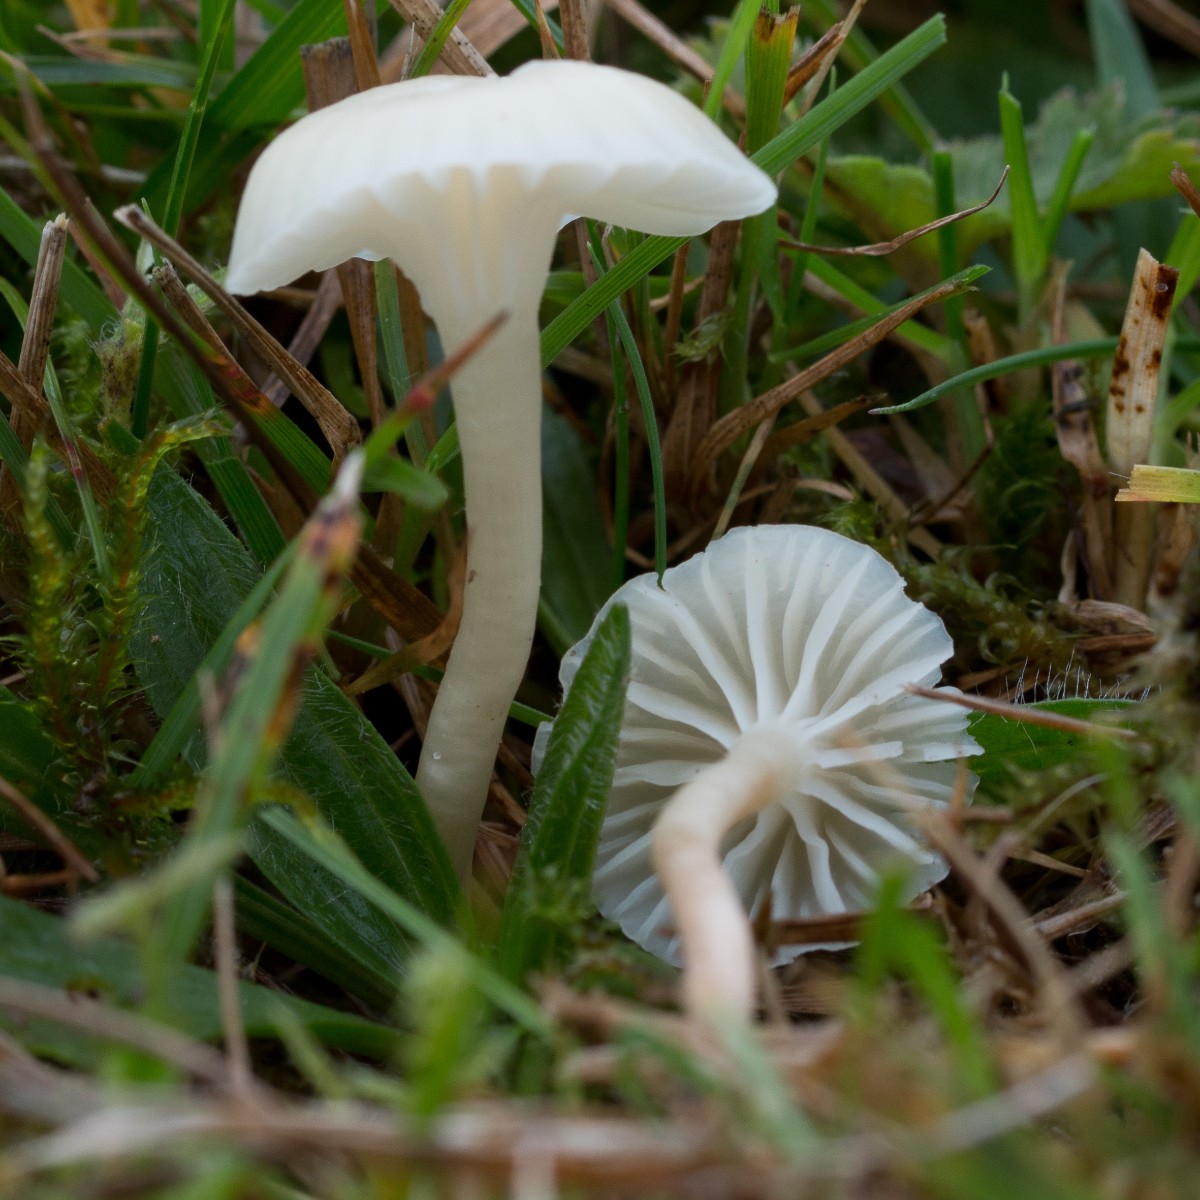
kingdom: Fungi
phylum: Basidiomycota
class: Agaricomycetes
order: Agaricales
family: Hygrophoraceae
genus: Cuphophyllus
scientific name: Cuphophyllus virgineus
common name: snehvid vokshat
